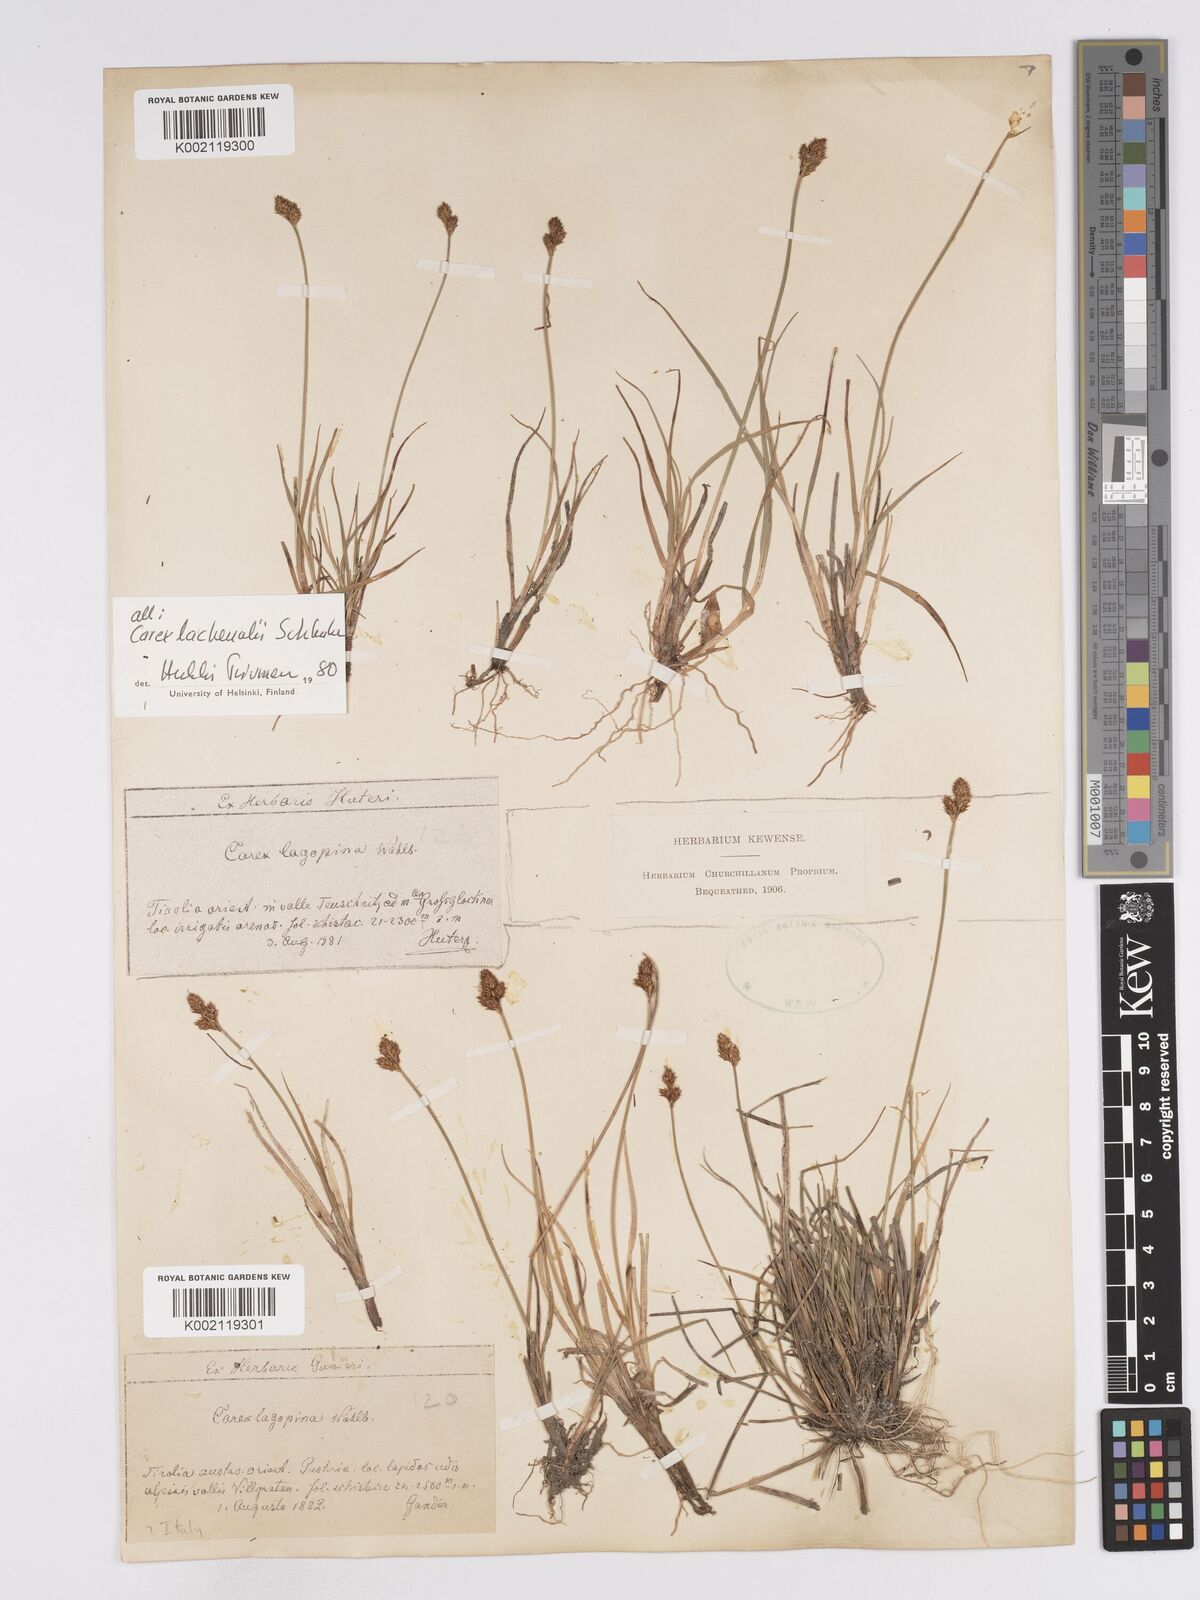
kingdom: Plantae
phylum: Tracheophyta
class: Liliopsida
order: Poales
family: Cyperaceae
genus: Carex
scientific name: Carex lachenalii
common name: Hare's-foot sedge
